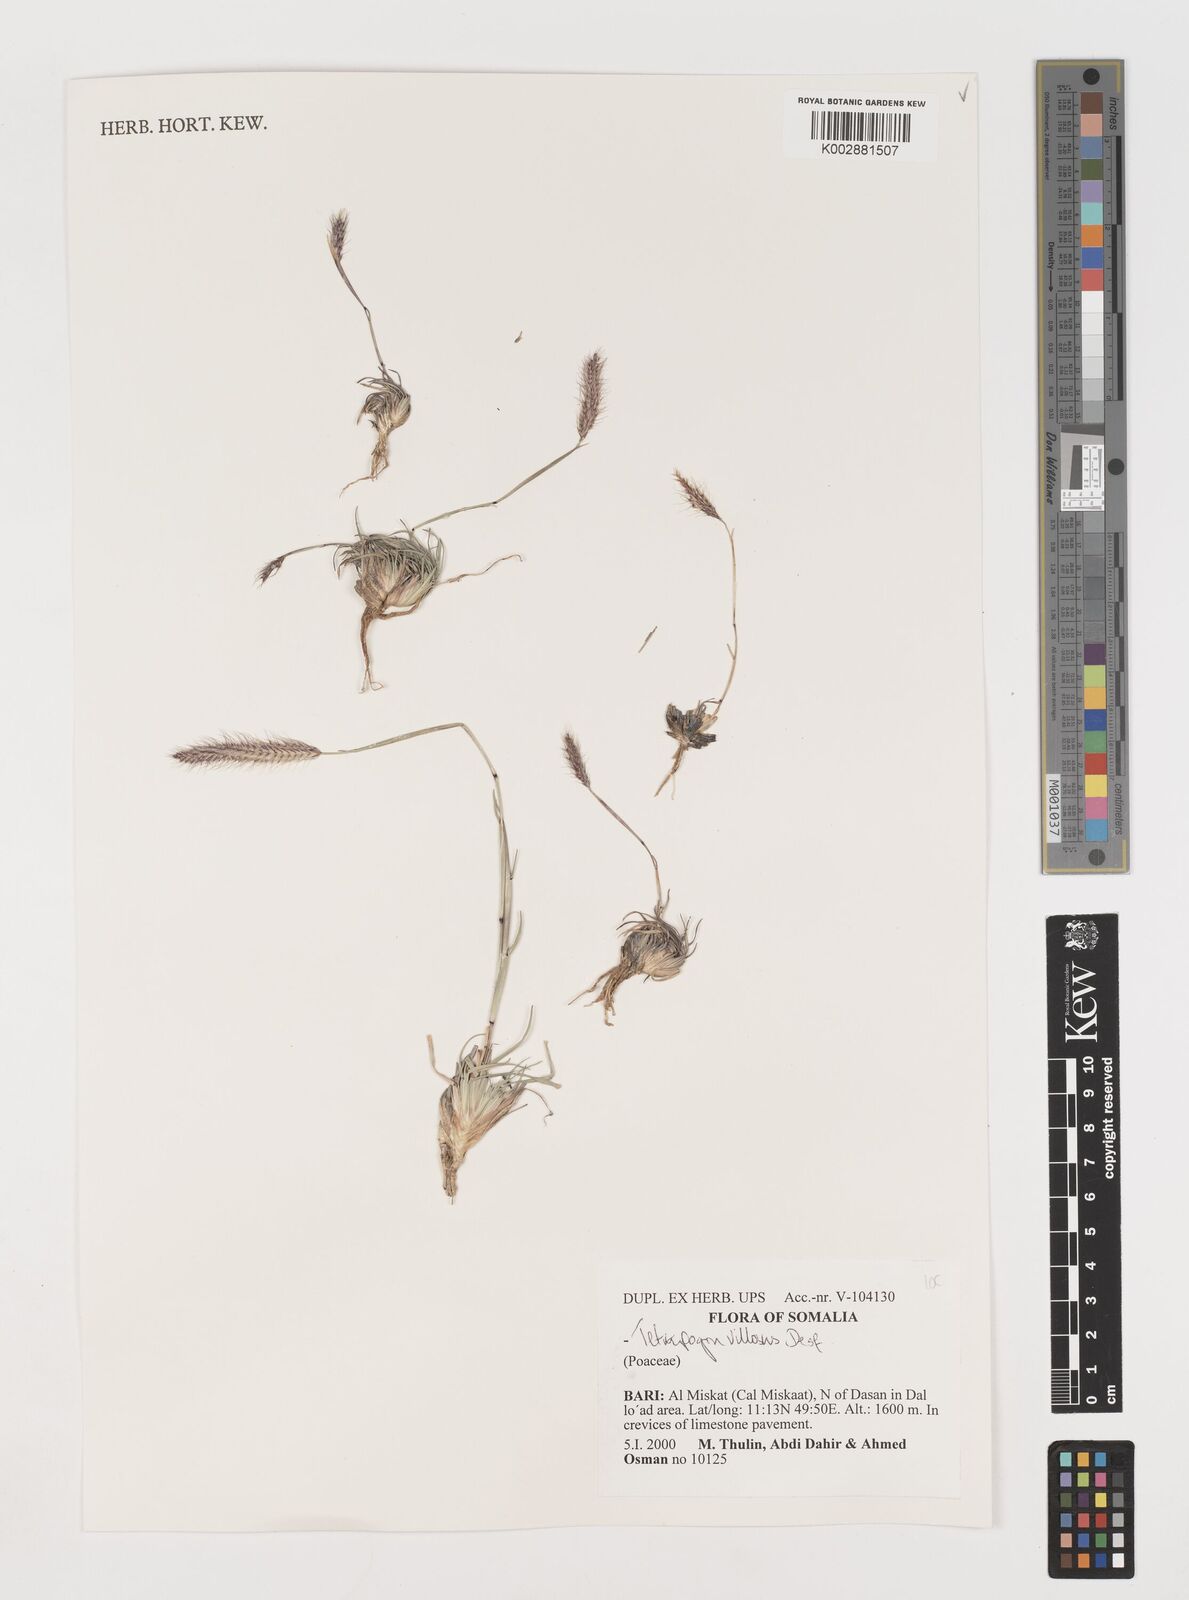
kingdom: Plantae
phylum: Tracheophyta
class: Liliopsida
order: Poales
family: Poaceae
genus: Tetrapogon
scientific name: Tetrapogon villosus
